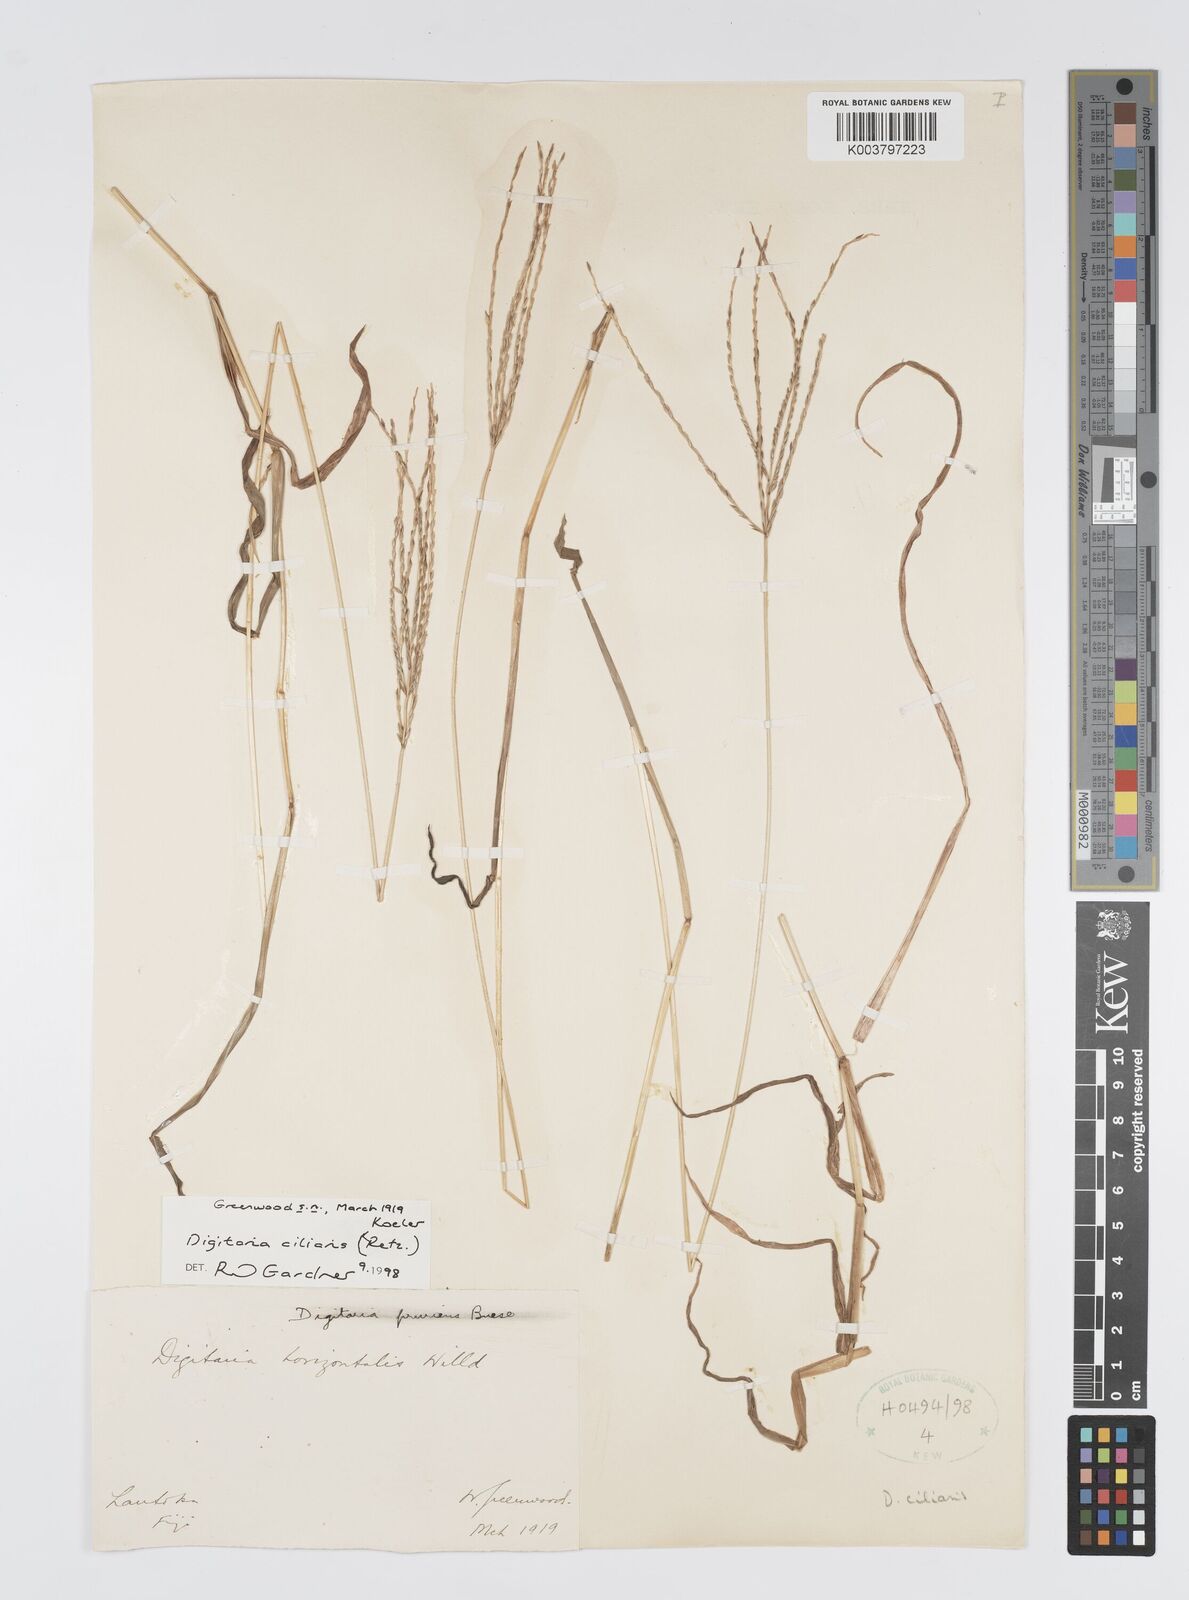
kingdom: Plantae
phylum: Tracheophyta
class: Liliopsida
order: Poales
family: Poaceae
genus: Digitaria
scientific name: Digitaria ciliaris
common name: Tropical finger-grass
